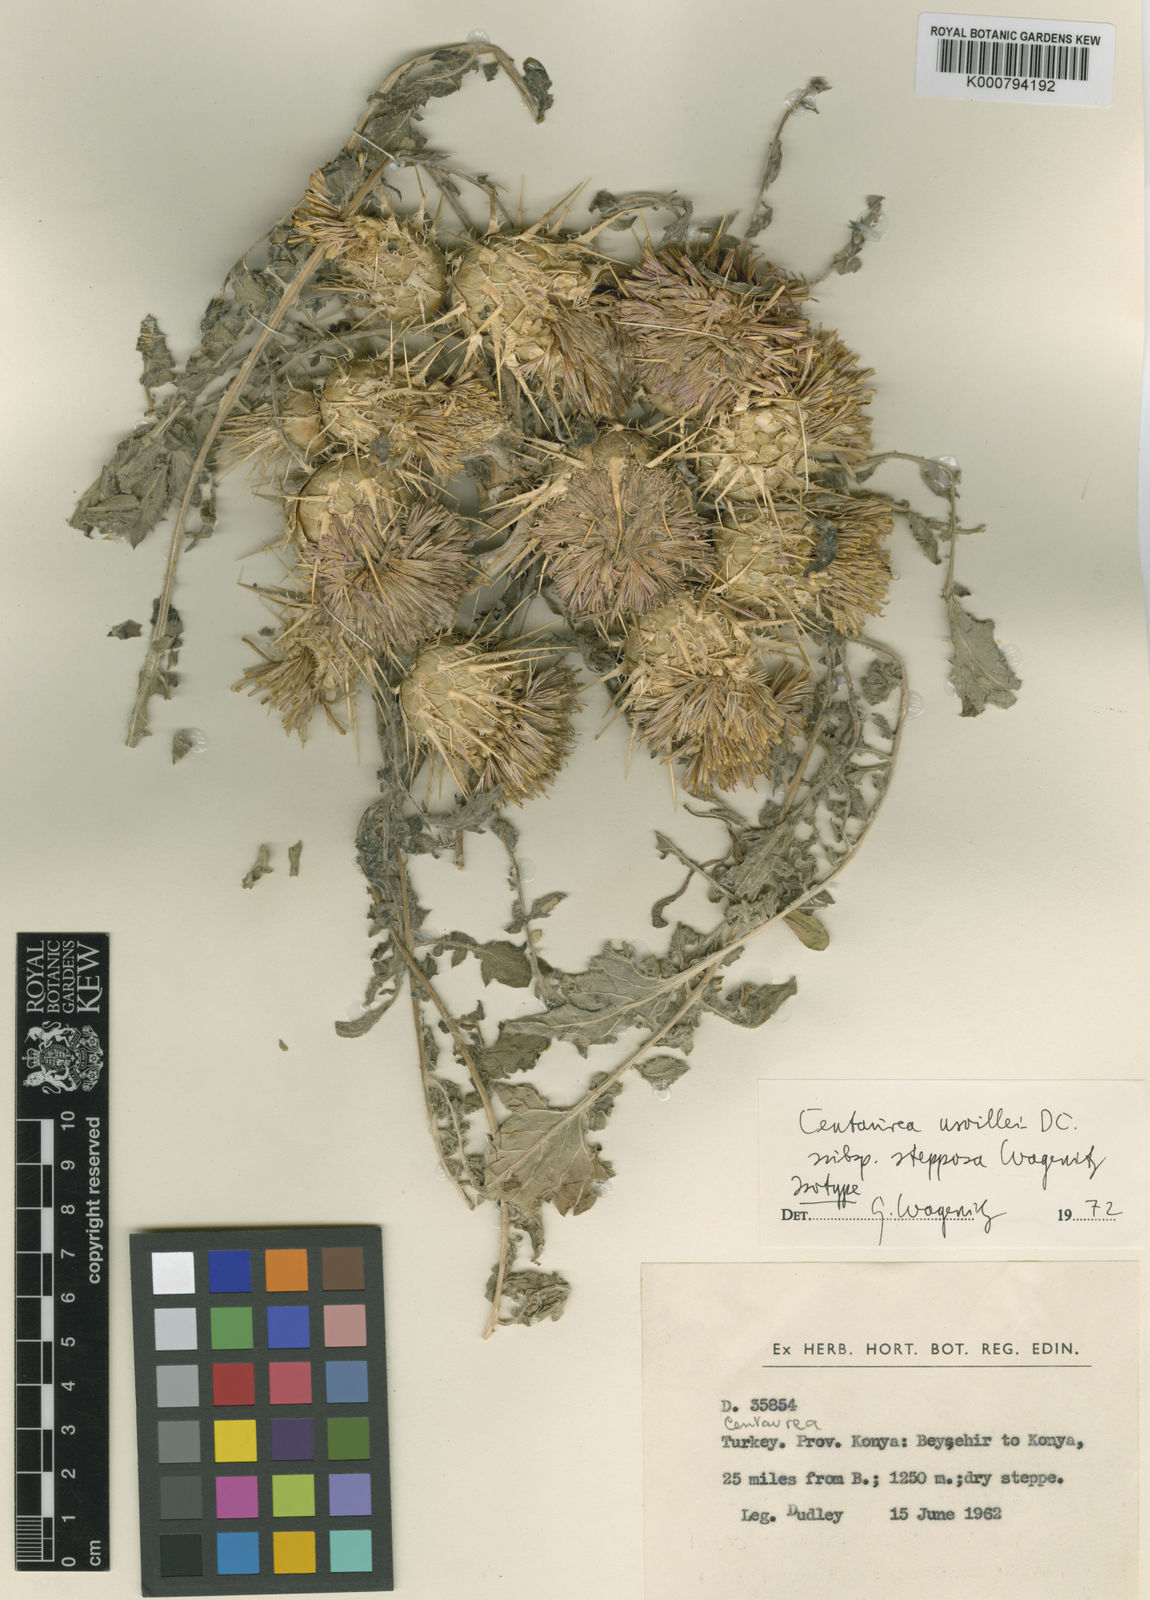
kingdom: Plantae
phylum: Tracheophyta
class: Magnoliopsida
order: Asterales
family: Asteraceae
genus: Centaurea
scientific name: Centaurea urvillei
